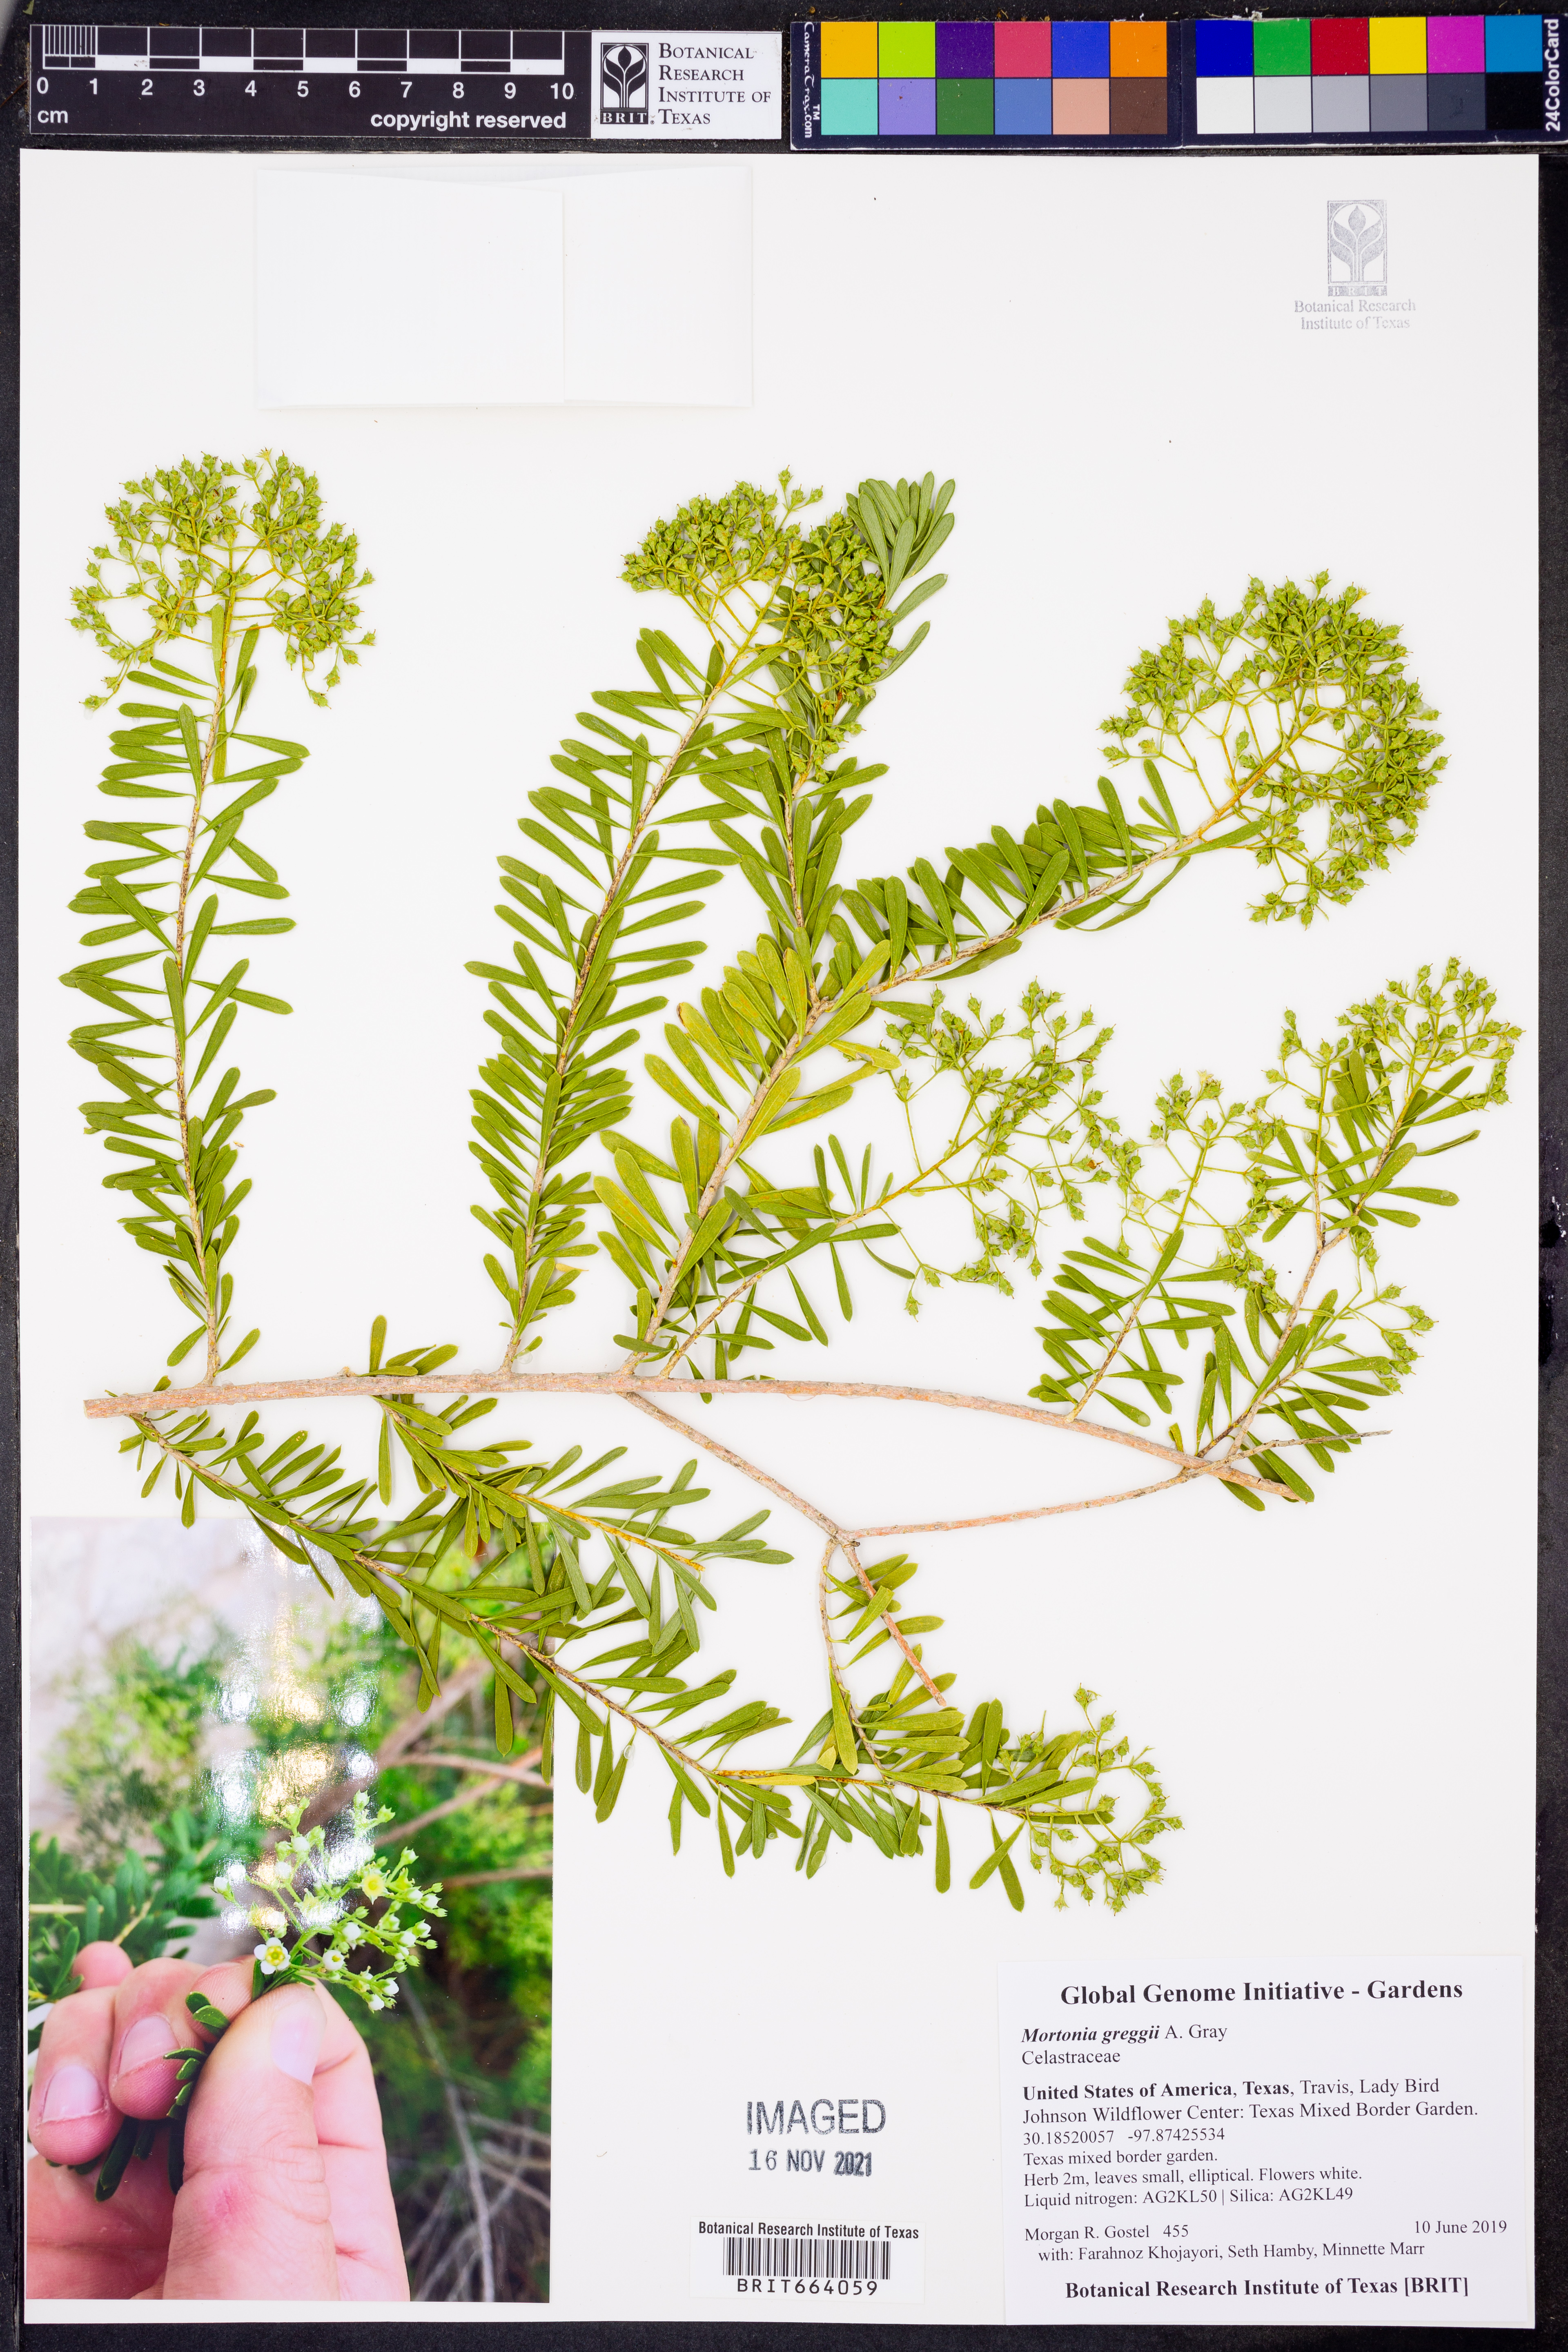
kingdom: Plantae
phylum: Tracheophyta
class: Magnoliopsida
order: Celastrales
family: Celastraceae
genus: Mortonia
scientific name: Mortonia greggii
